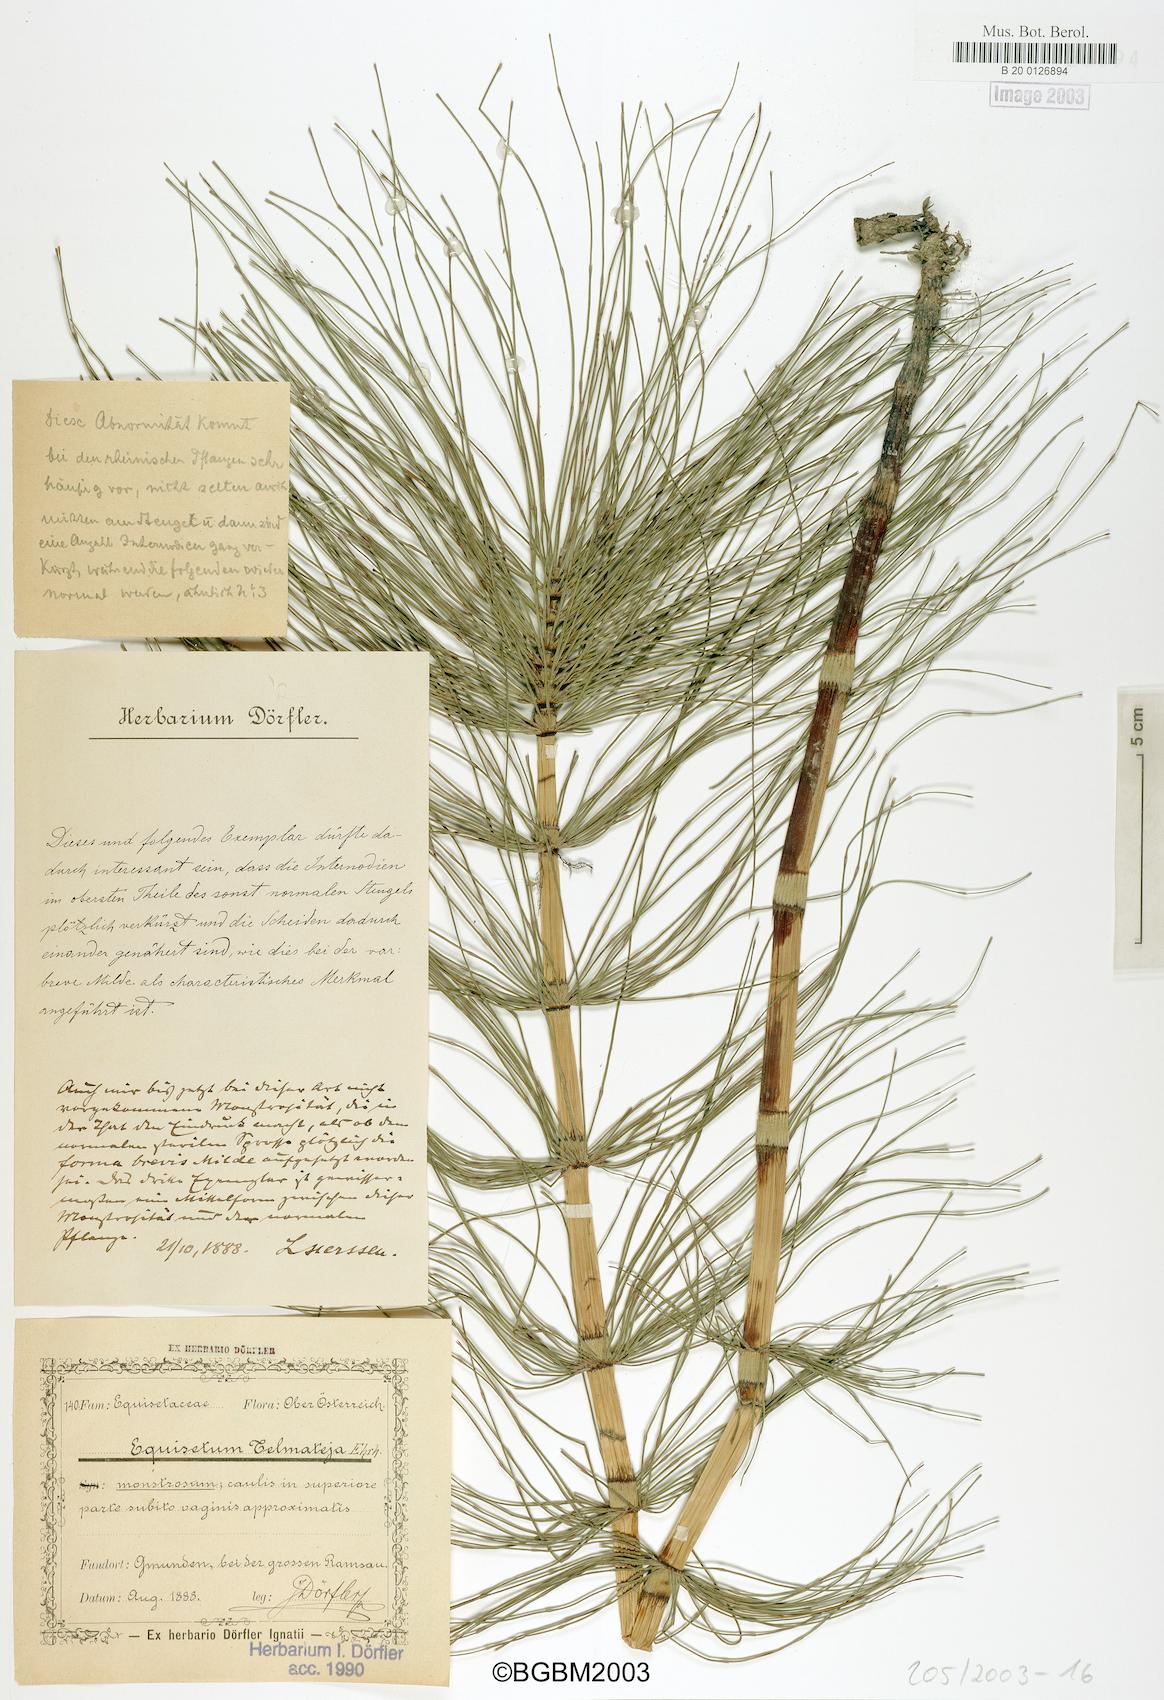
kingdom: Plantae
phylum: Tracheophyta
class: Polypodiopsida
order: Equisetales
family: Equisetaceae
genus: Equisetum
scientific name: Equisetum telmateia
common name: Great horsetail
